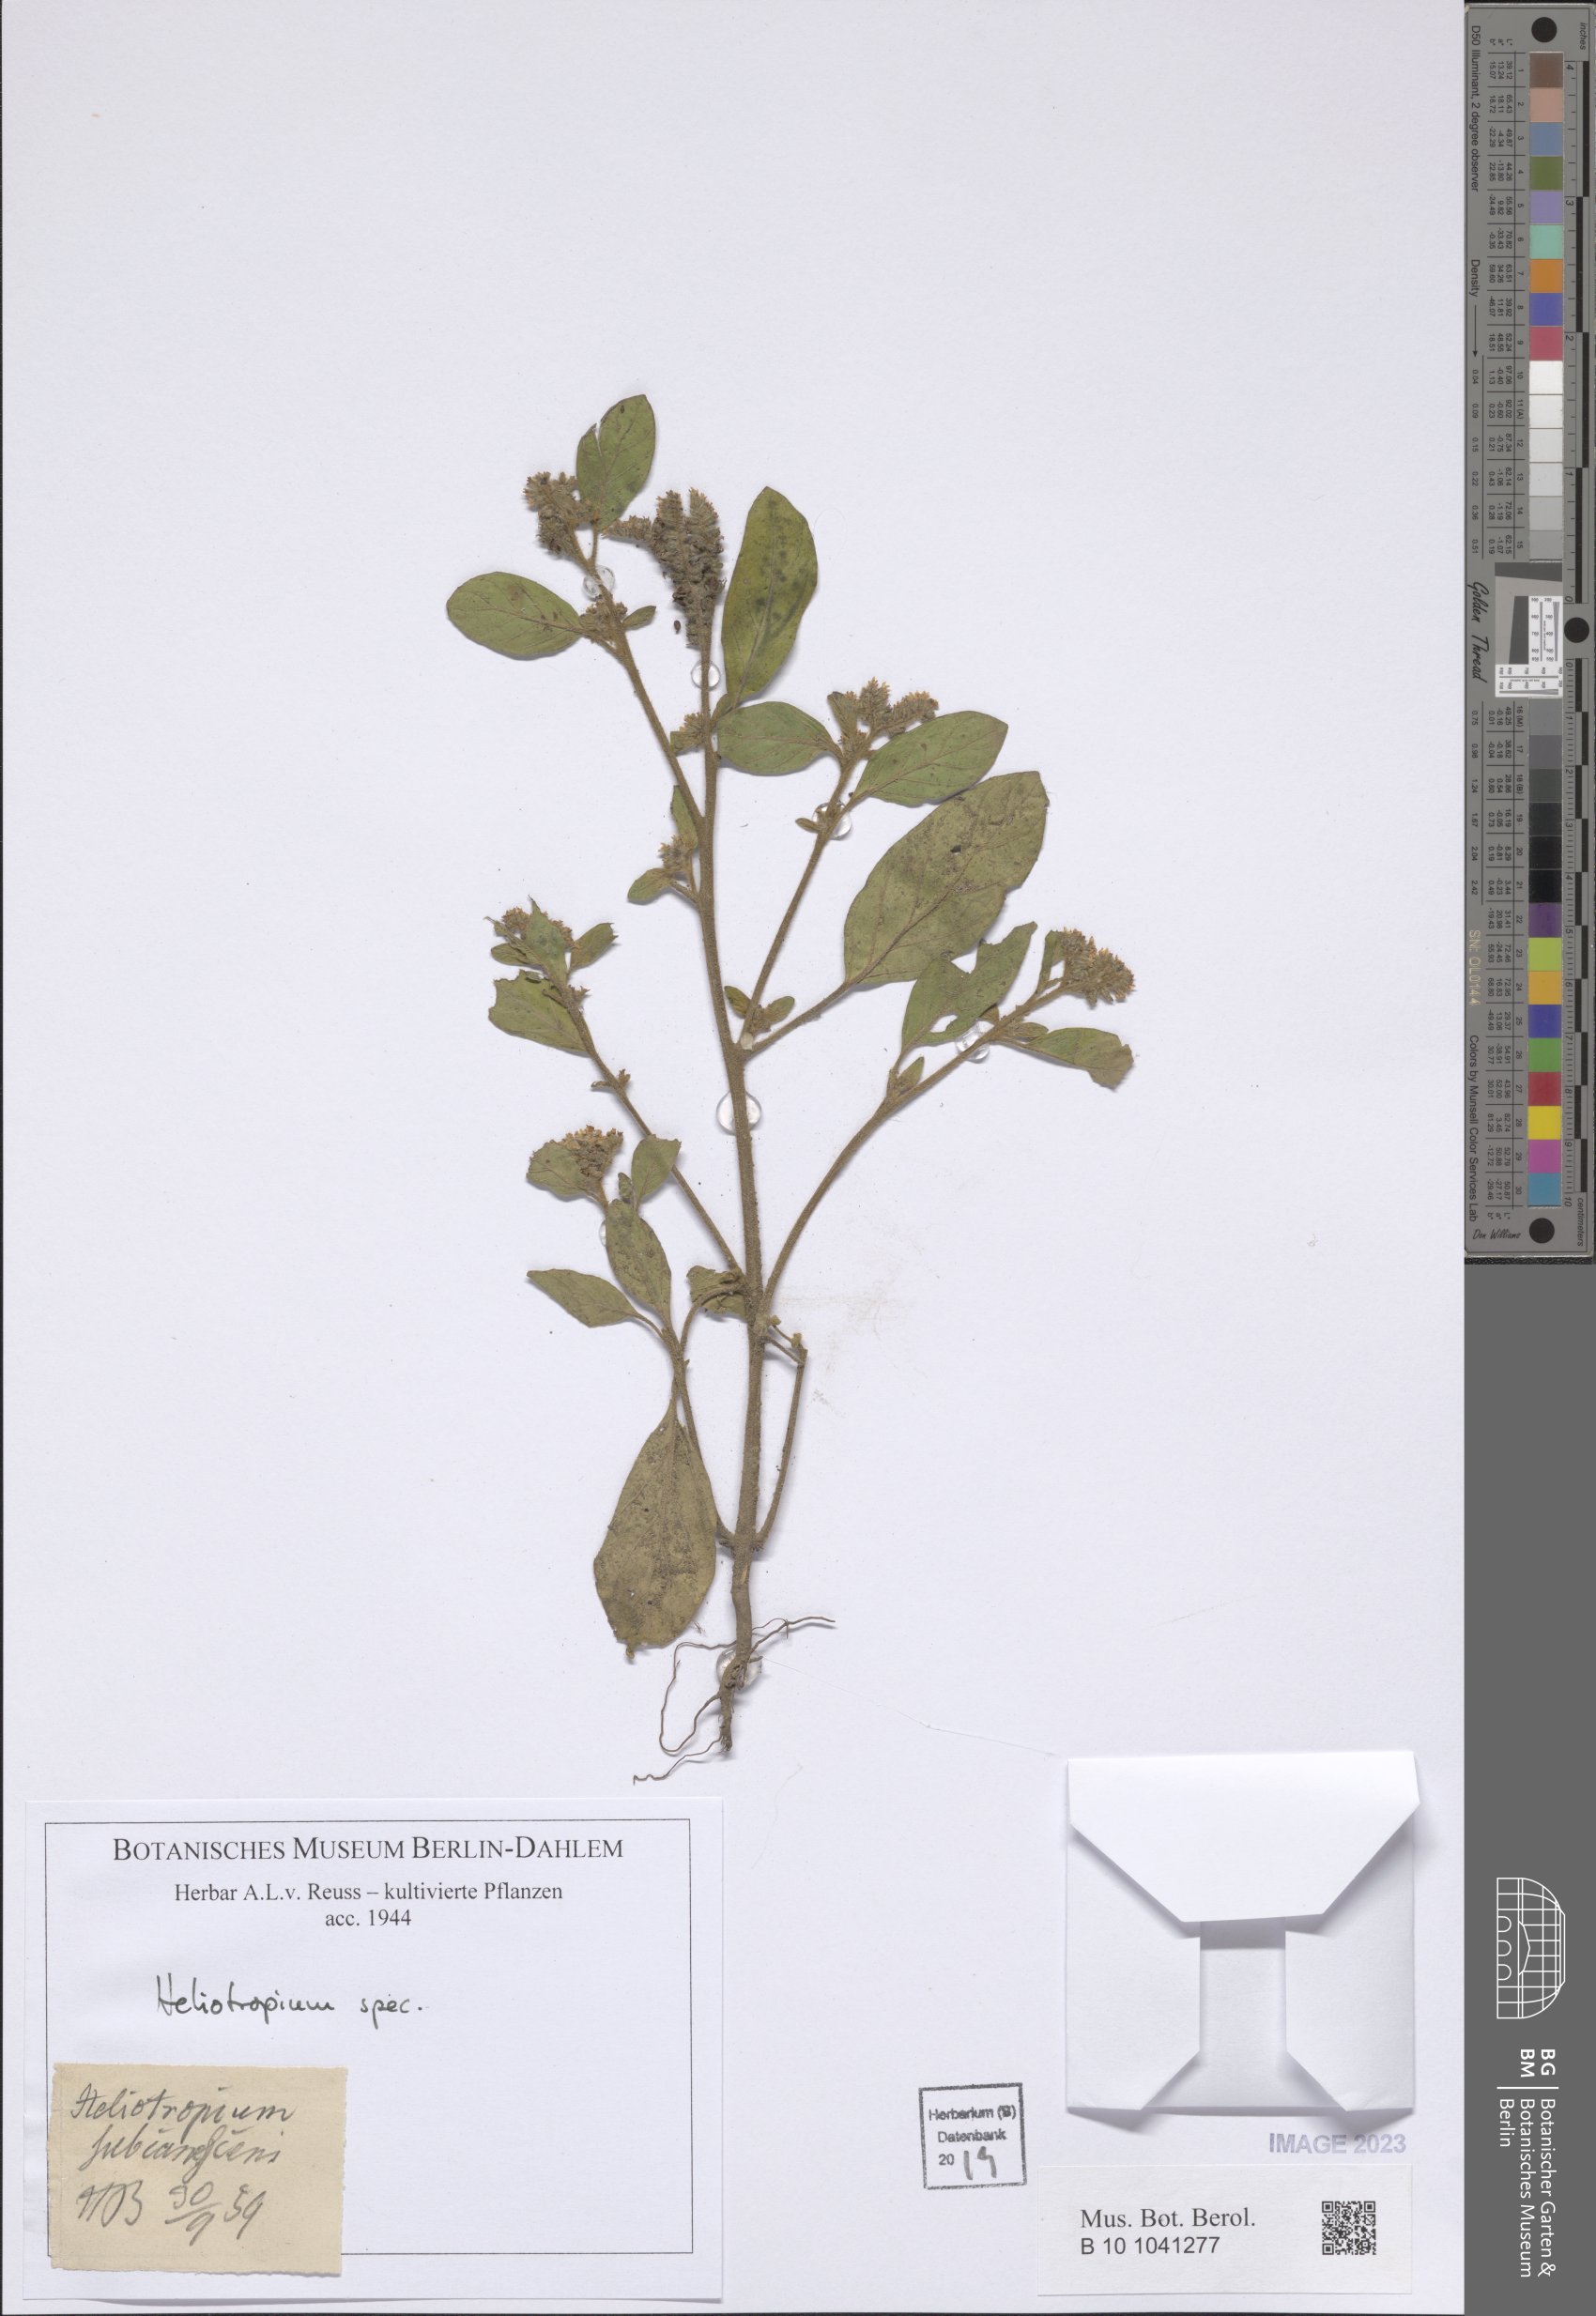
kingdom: Plantae
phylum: Tracheophyta
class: Magnoliopsida
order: Boraginales
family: Heliotropiaceae
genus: Heliotropium
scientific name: Heliotropium
